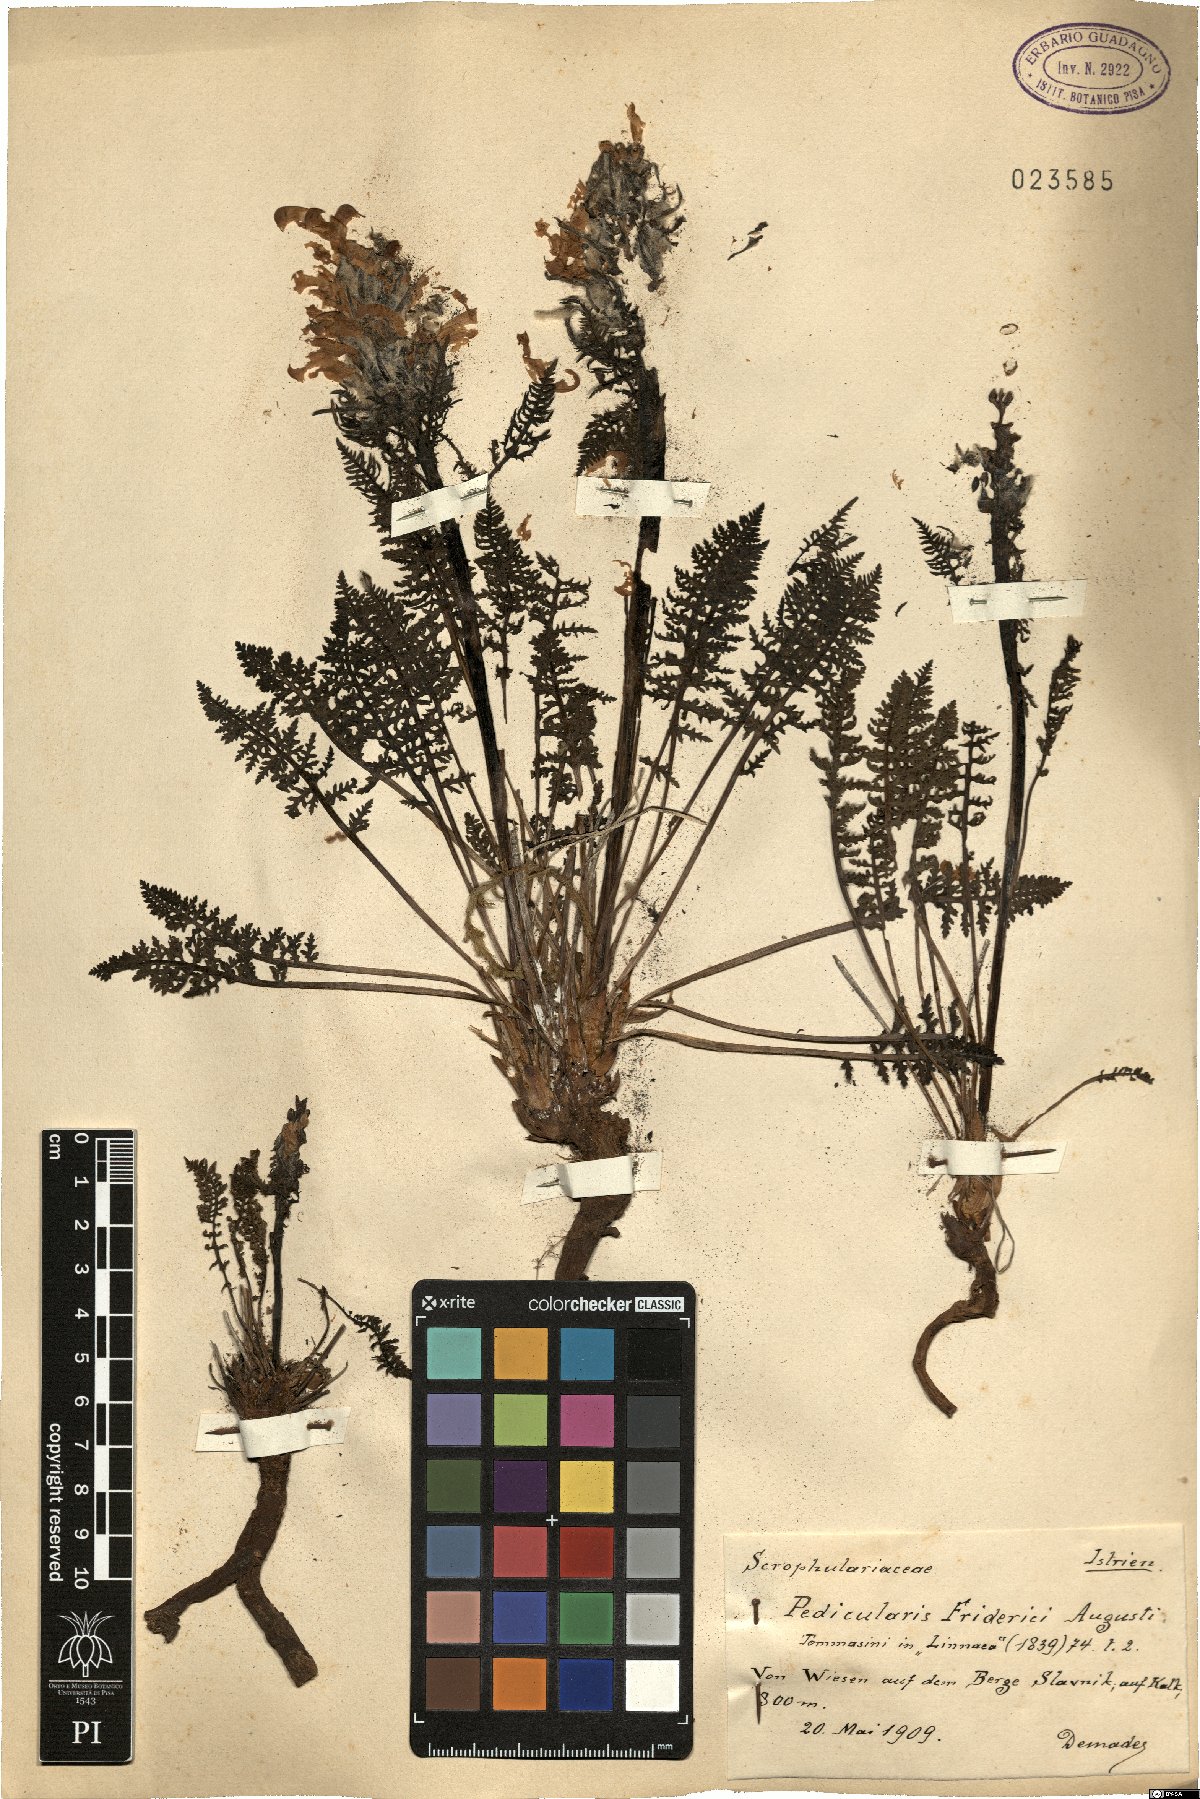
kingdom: Plantae
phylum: Tracheophyta
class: Magnoliopsida
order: Lamiales
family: Orobanchaceae
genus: Pedicularis
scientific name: Pedicularis friderici-augusti
